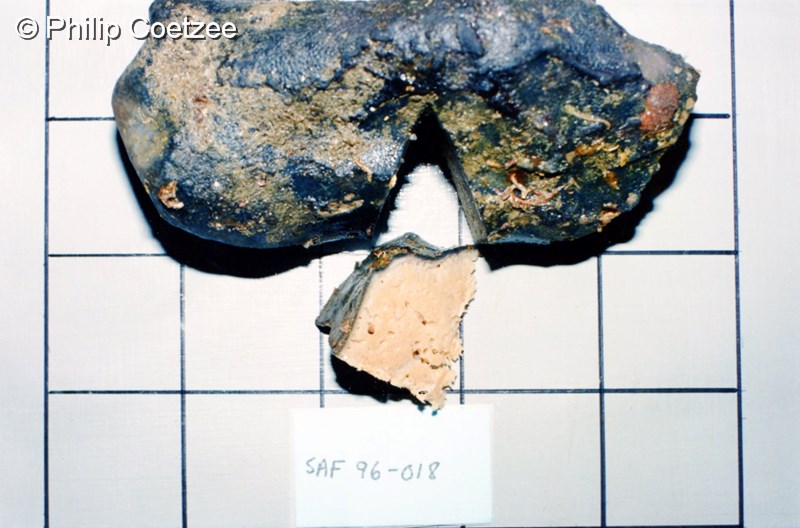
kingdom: Animalia
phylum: Porifera
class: Demospongiae
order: Tetractinellida
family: Ancorinidae
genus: Stelletta
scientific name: Stelletta trisclera
